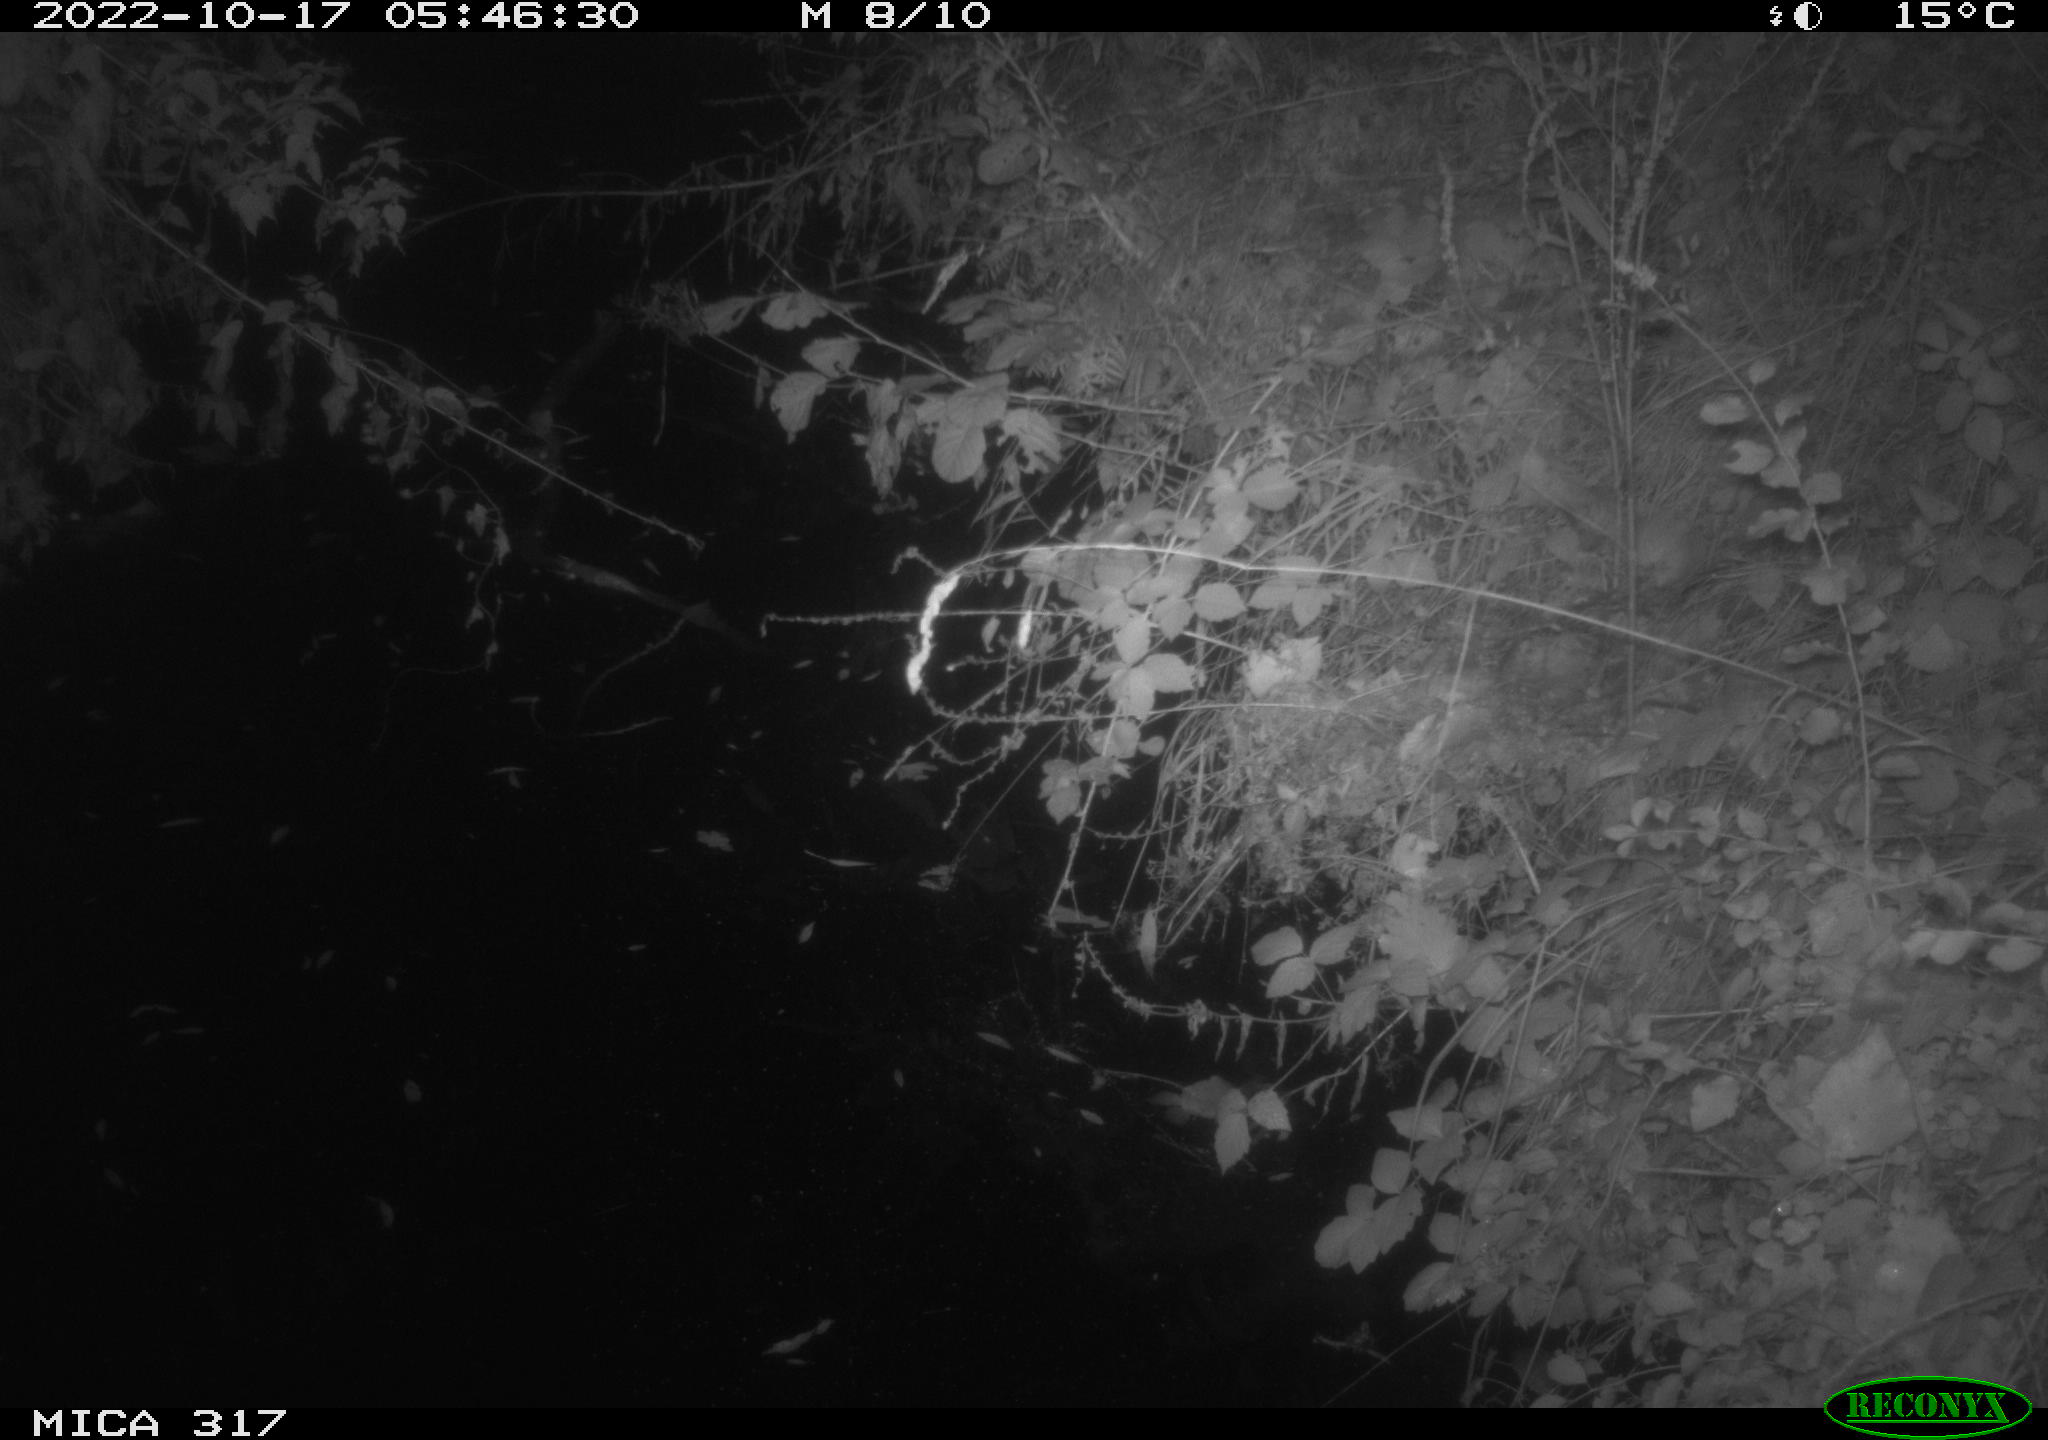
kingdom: Animalia
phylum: Chordata
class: Aves
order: Anseriformes
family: Anatidae
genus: Anas
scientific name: Anas
